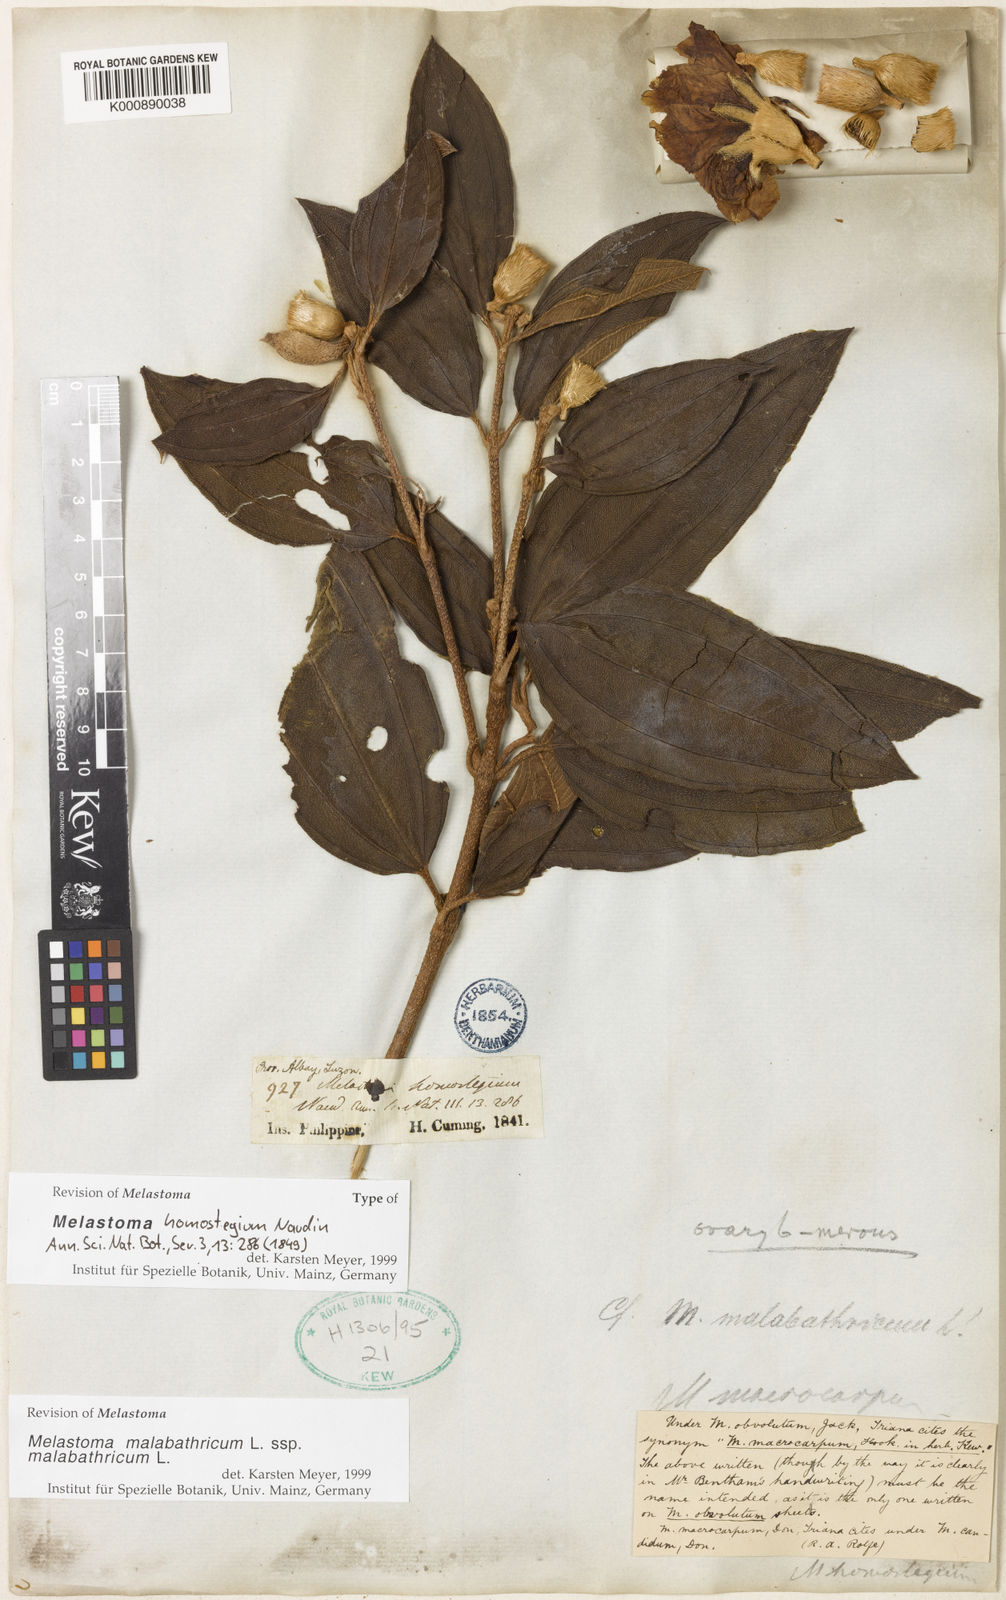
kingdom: Plantae
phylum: Tracheophyta
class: Magnoliopsida
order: Myrtales
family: Melastomataceae
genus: Melastoma
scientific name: Melastoma malabathricum
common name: Indian-rhododendron
